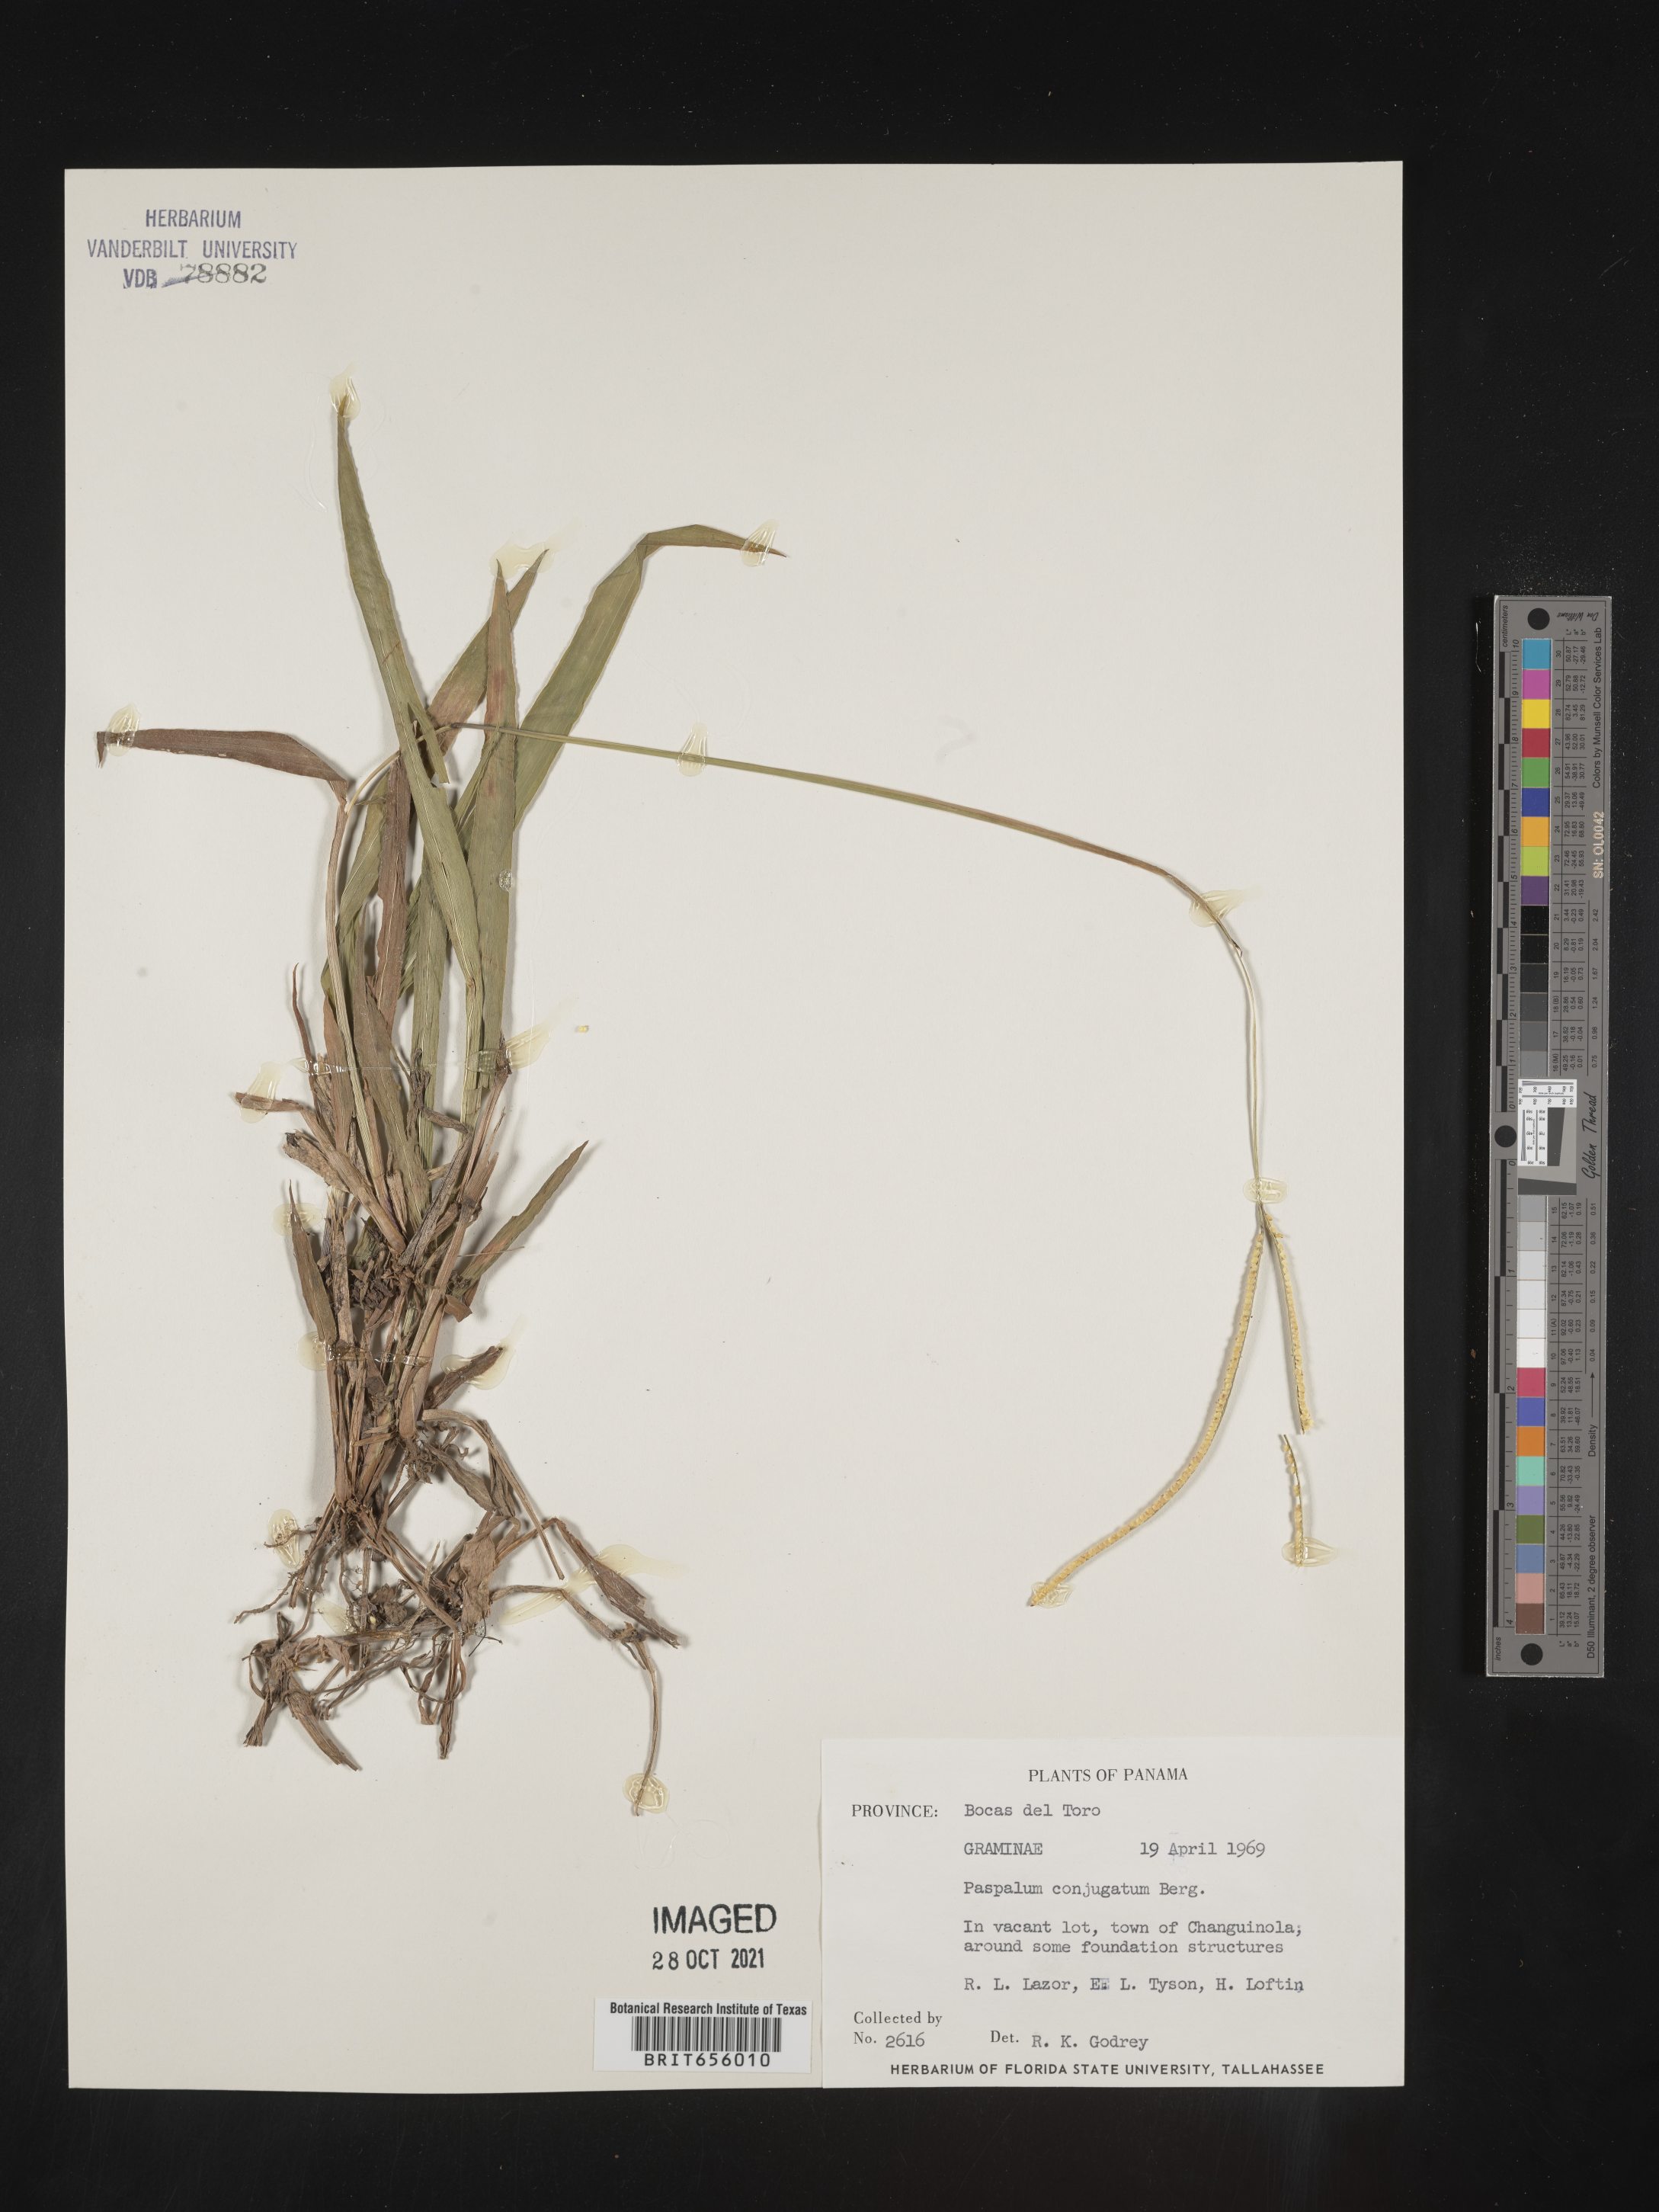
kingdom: Plantae
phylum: Tracheophyta
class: Liliopsida
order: Poales
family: Poaceae
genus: Paspalum
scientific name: Paspalum
